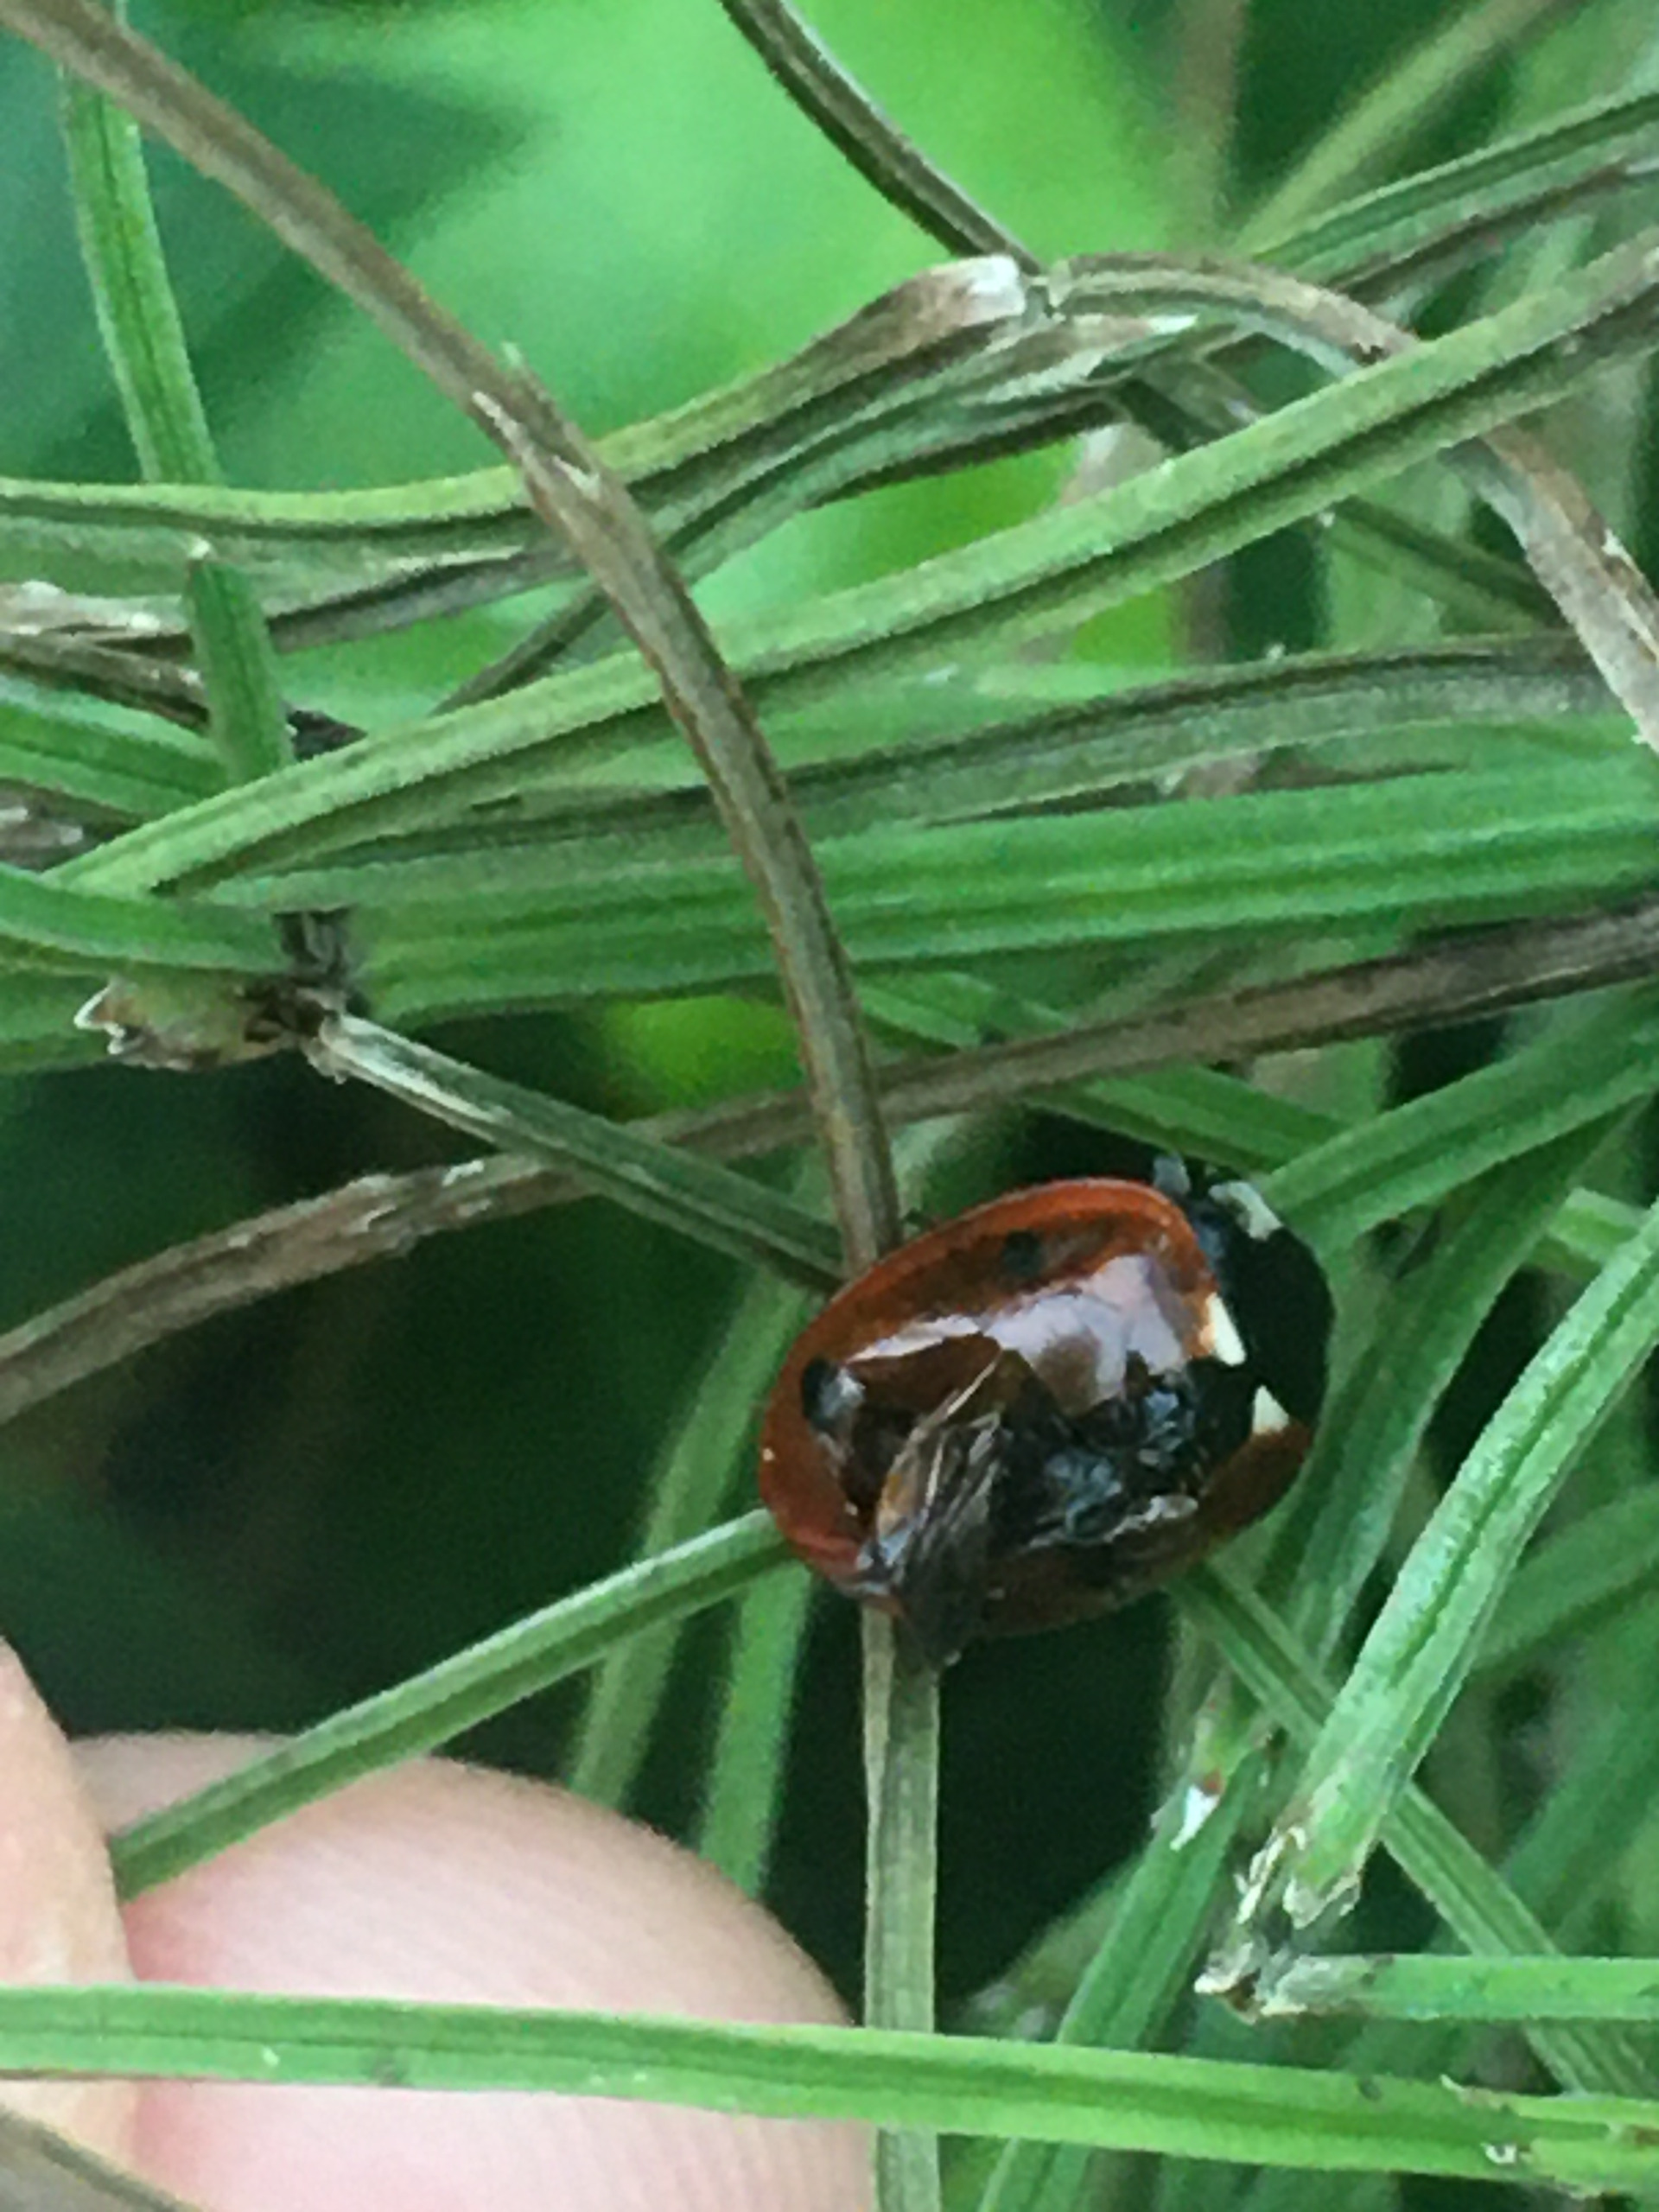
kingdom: Animalia
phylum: Arthropoda
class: Insecta
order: Coleoptera
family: Coccinellidae
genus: Coccinella
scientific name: Coccinella septempunctata
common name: Syvplettet mariehøne
